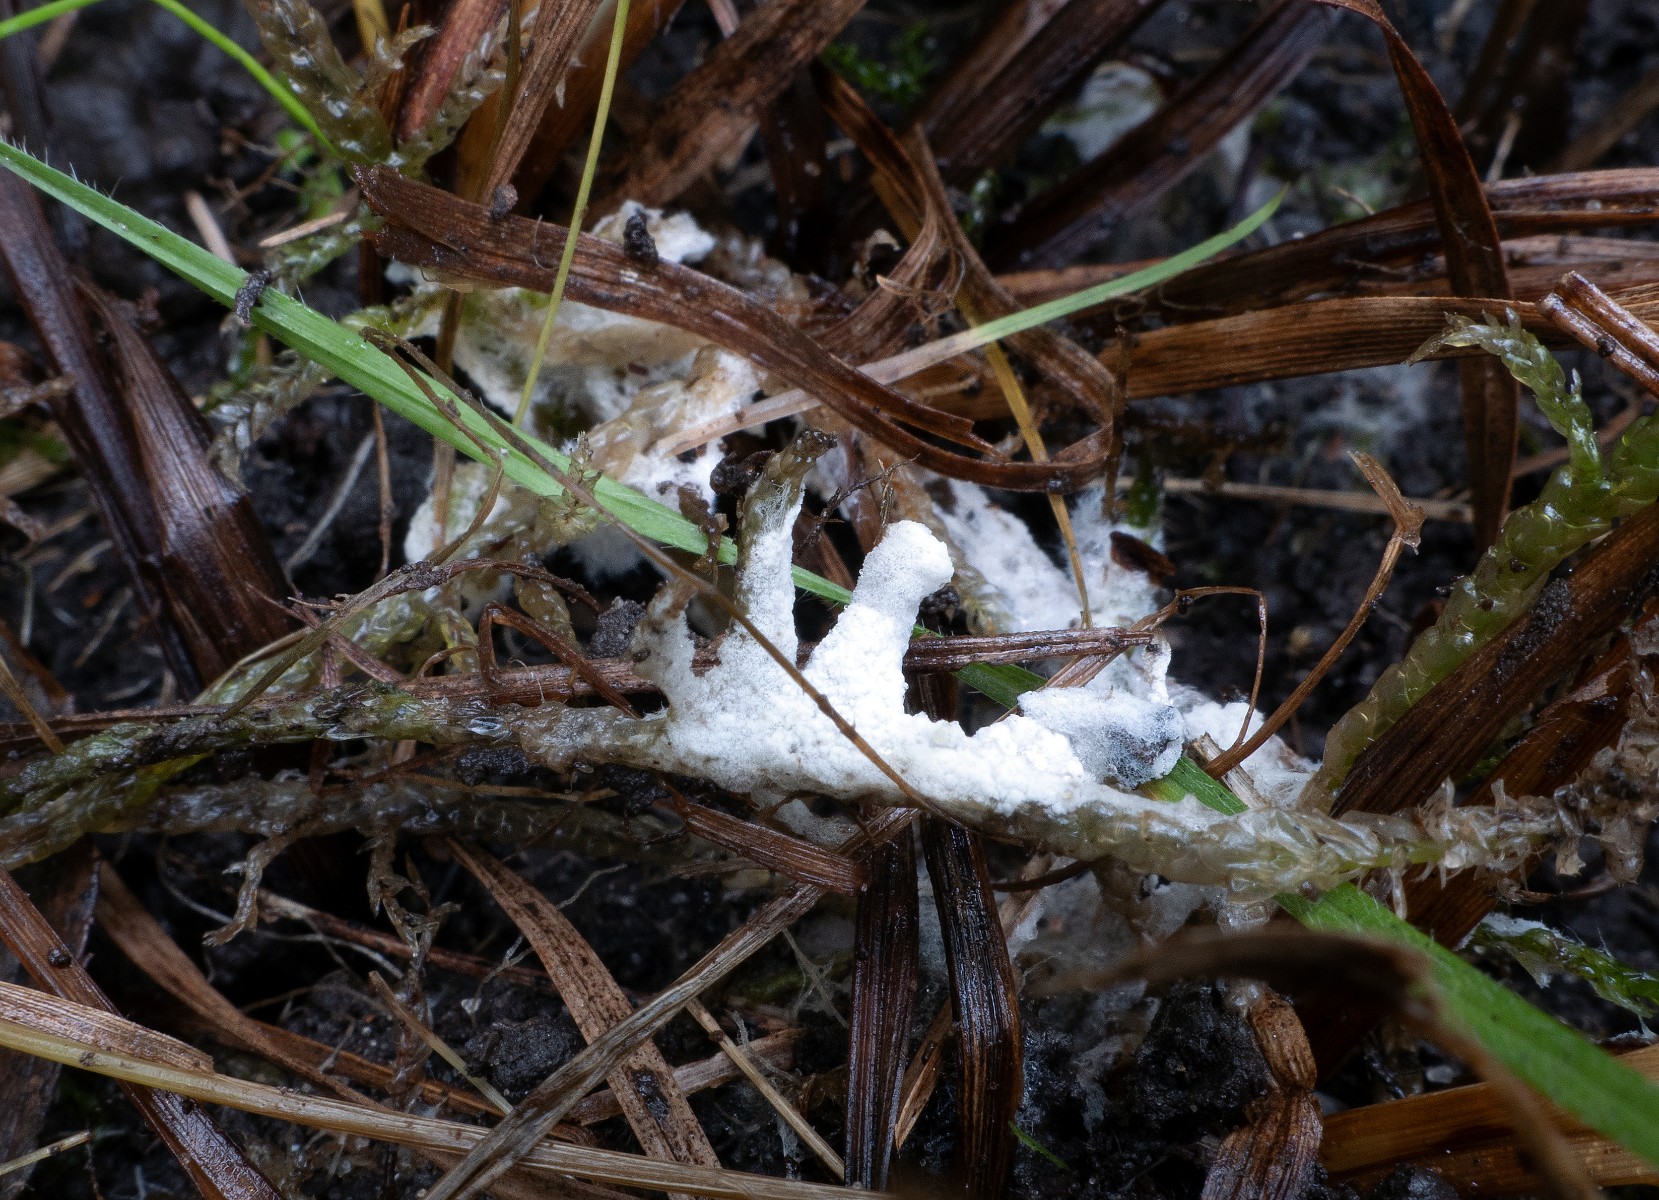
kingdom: Fungi
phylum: Basidiomycota
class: Agaricomycetes
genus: Trechinothus
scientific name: Trechinothus smardae
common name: krathinde
